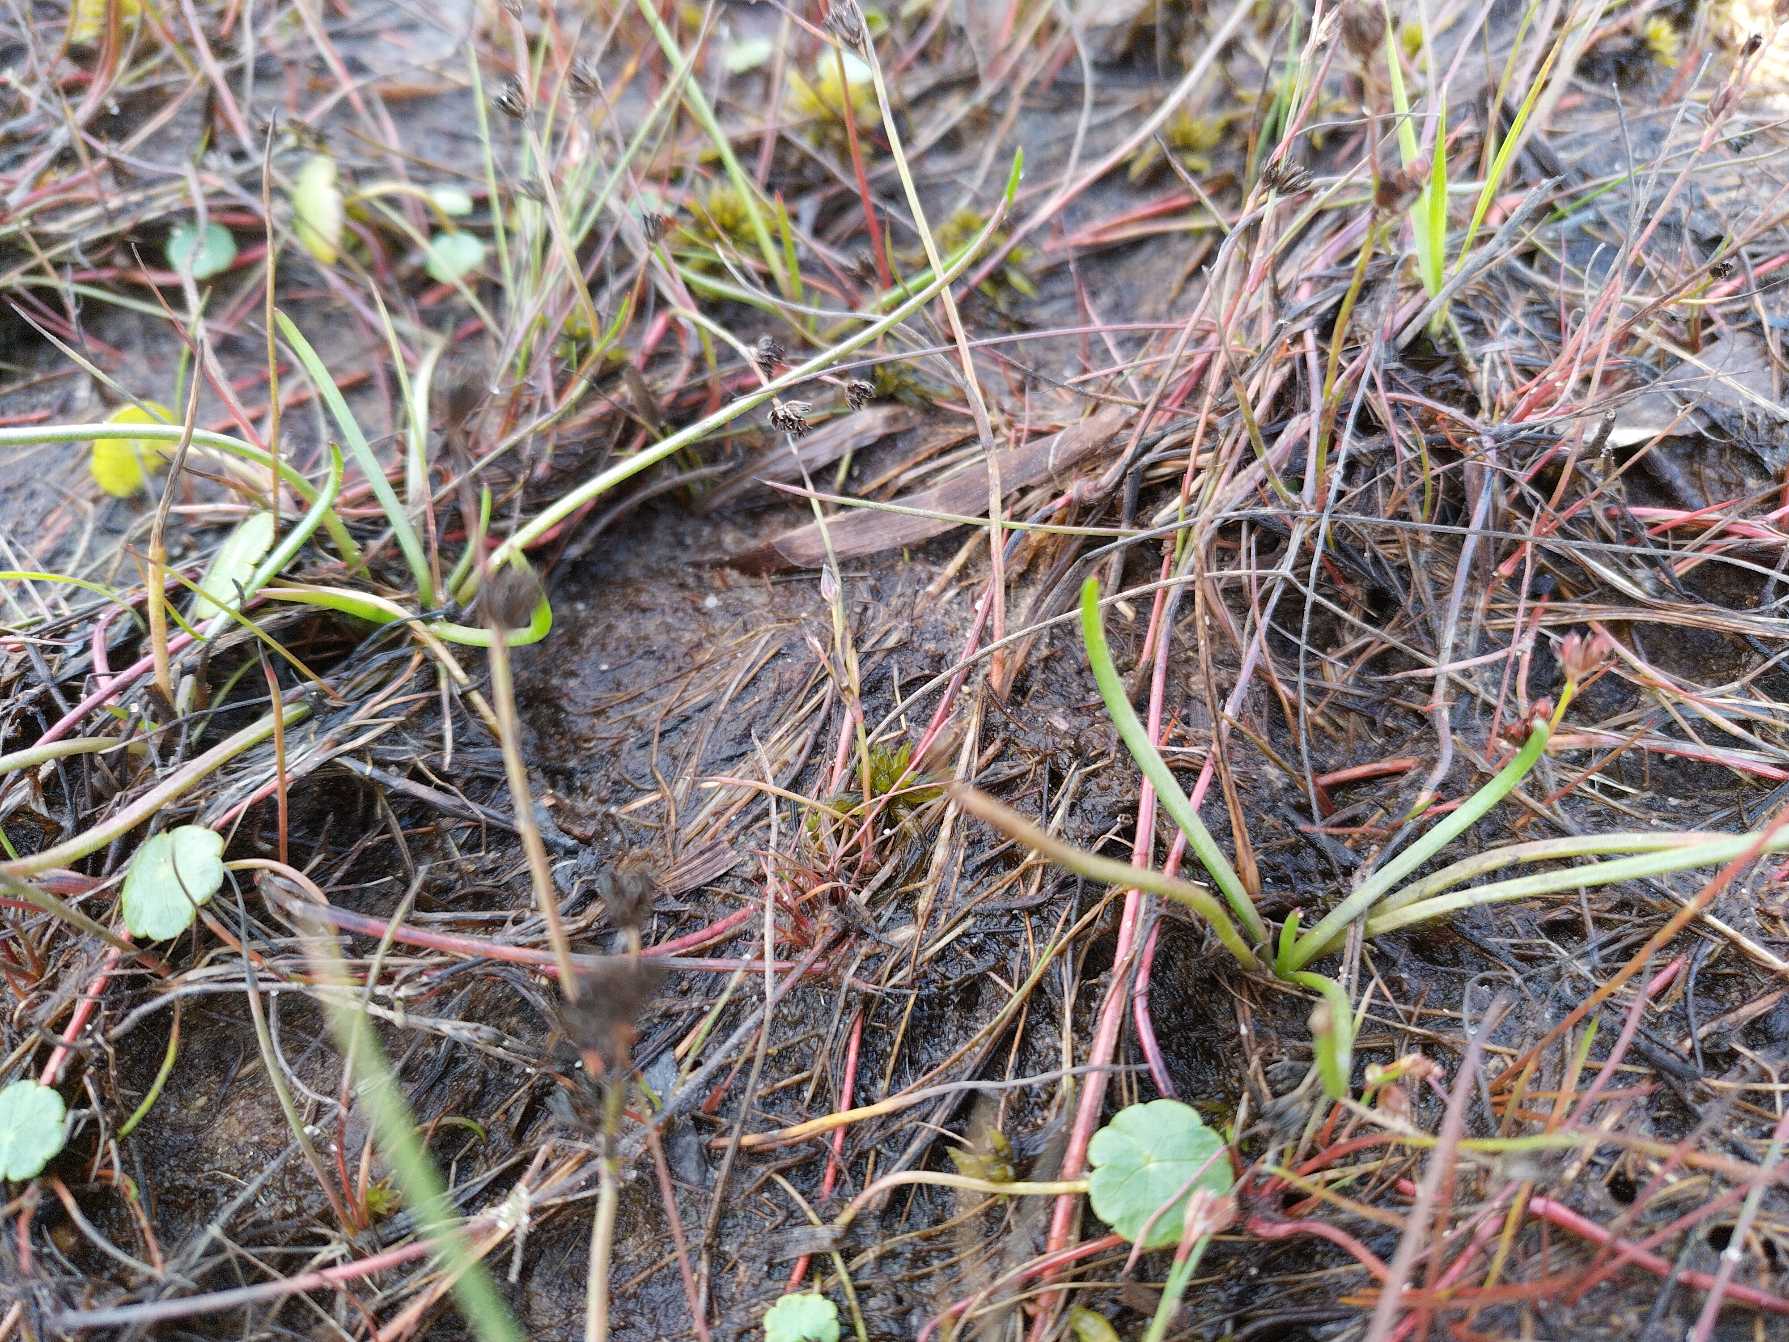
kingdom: Plantae
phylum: Tracheophyta
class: Magnoliopsida
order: Lamiales
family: Plantaginaceae
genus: Littorella
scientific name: Littorella uniflora
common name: Strandbo
